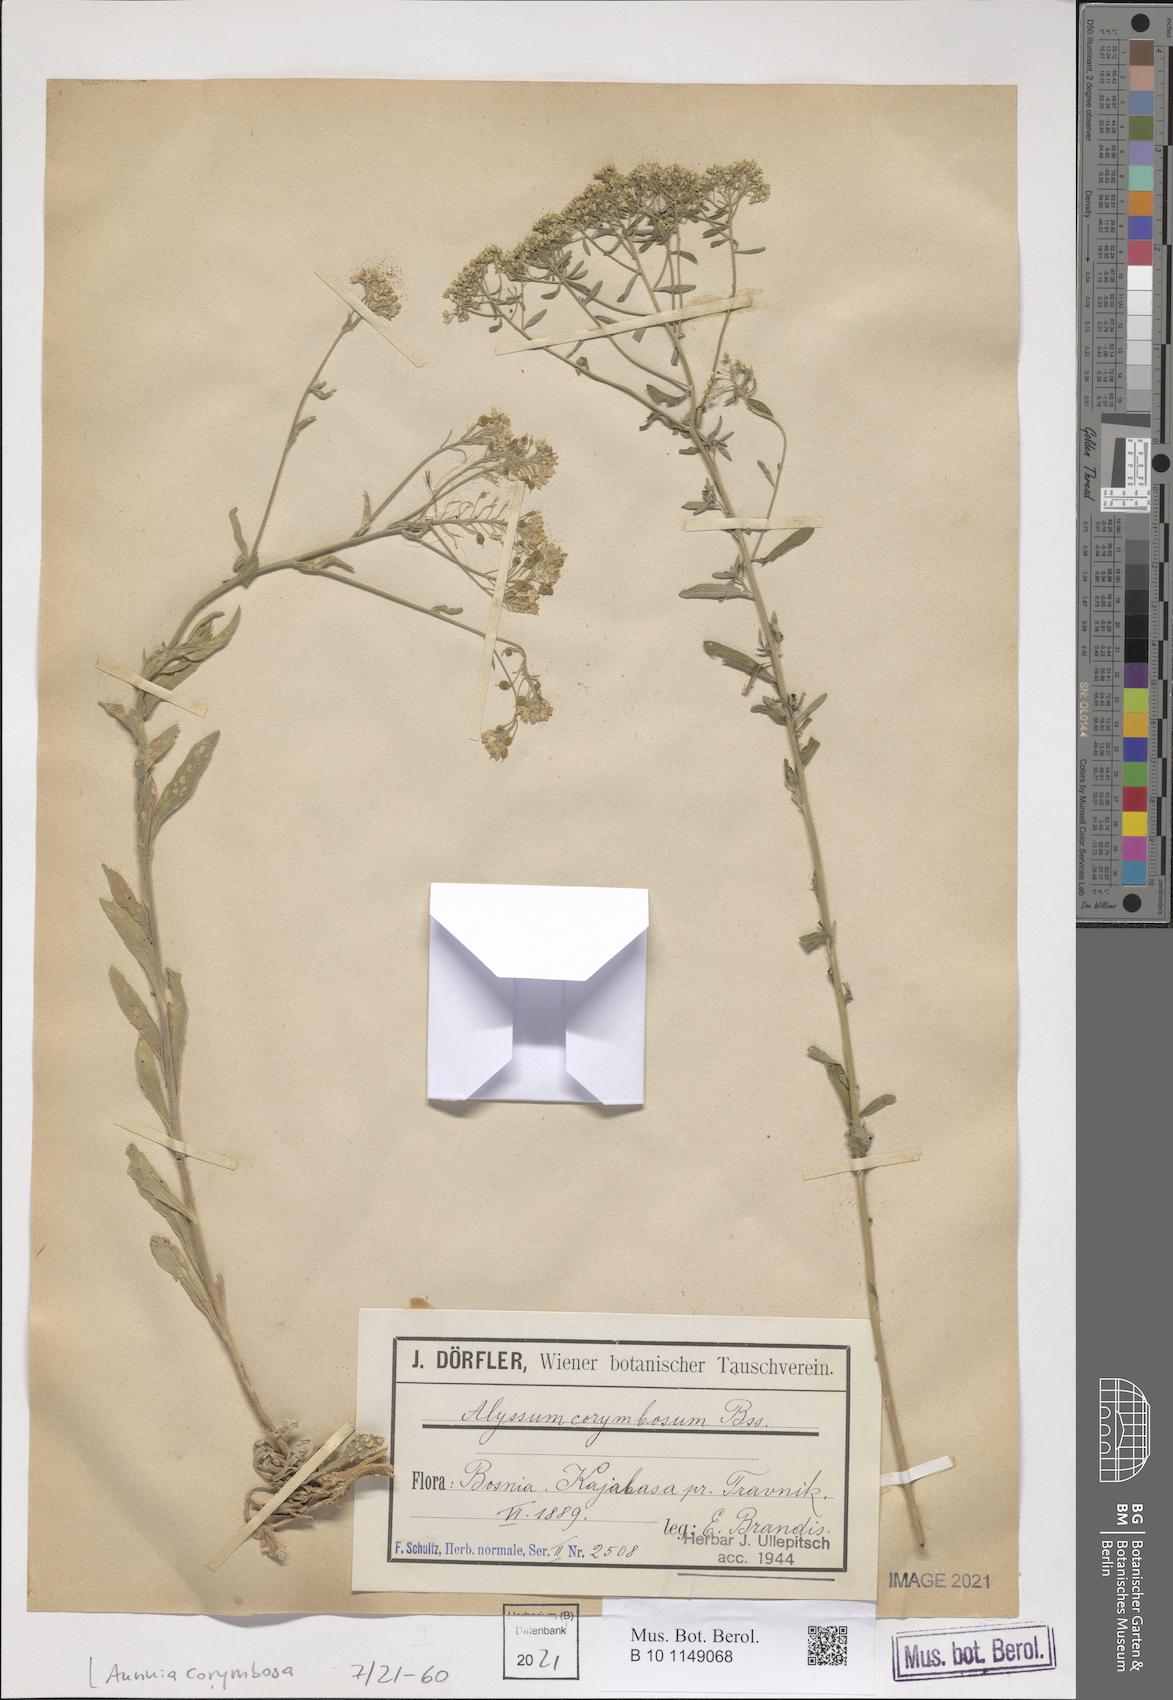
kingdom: Plantae
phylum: Tracheophyta
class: Magnoliopsida
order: Brassicales
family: Brassicaceae
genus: Aurinia
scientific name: Aurinia corymbosa
